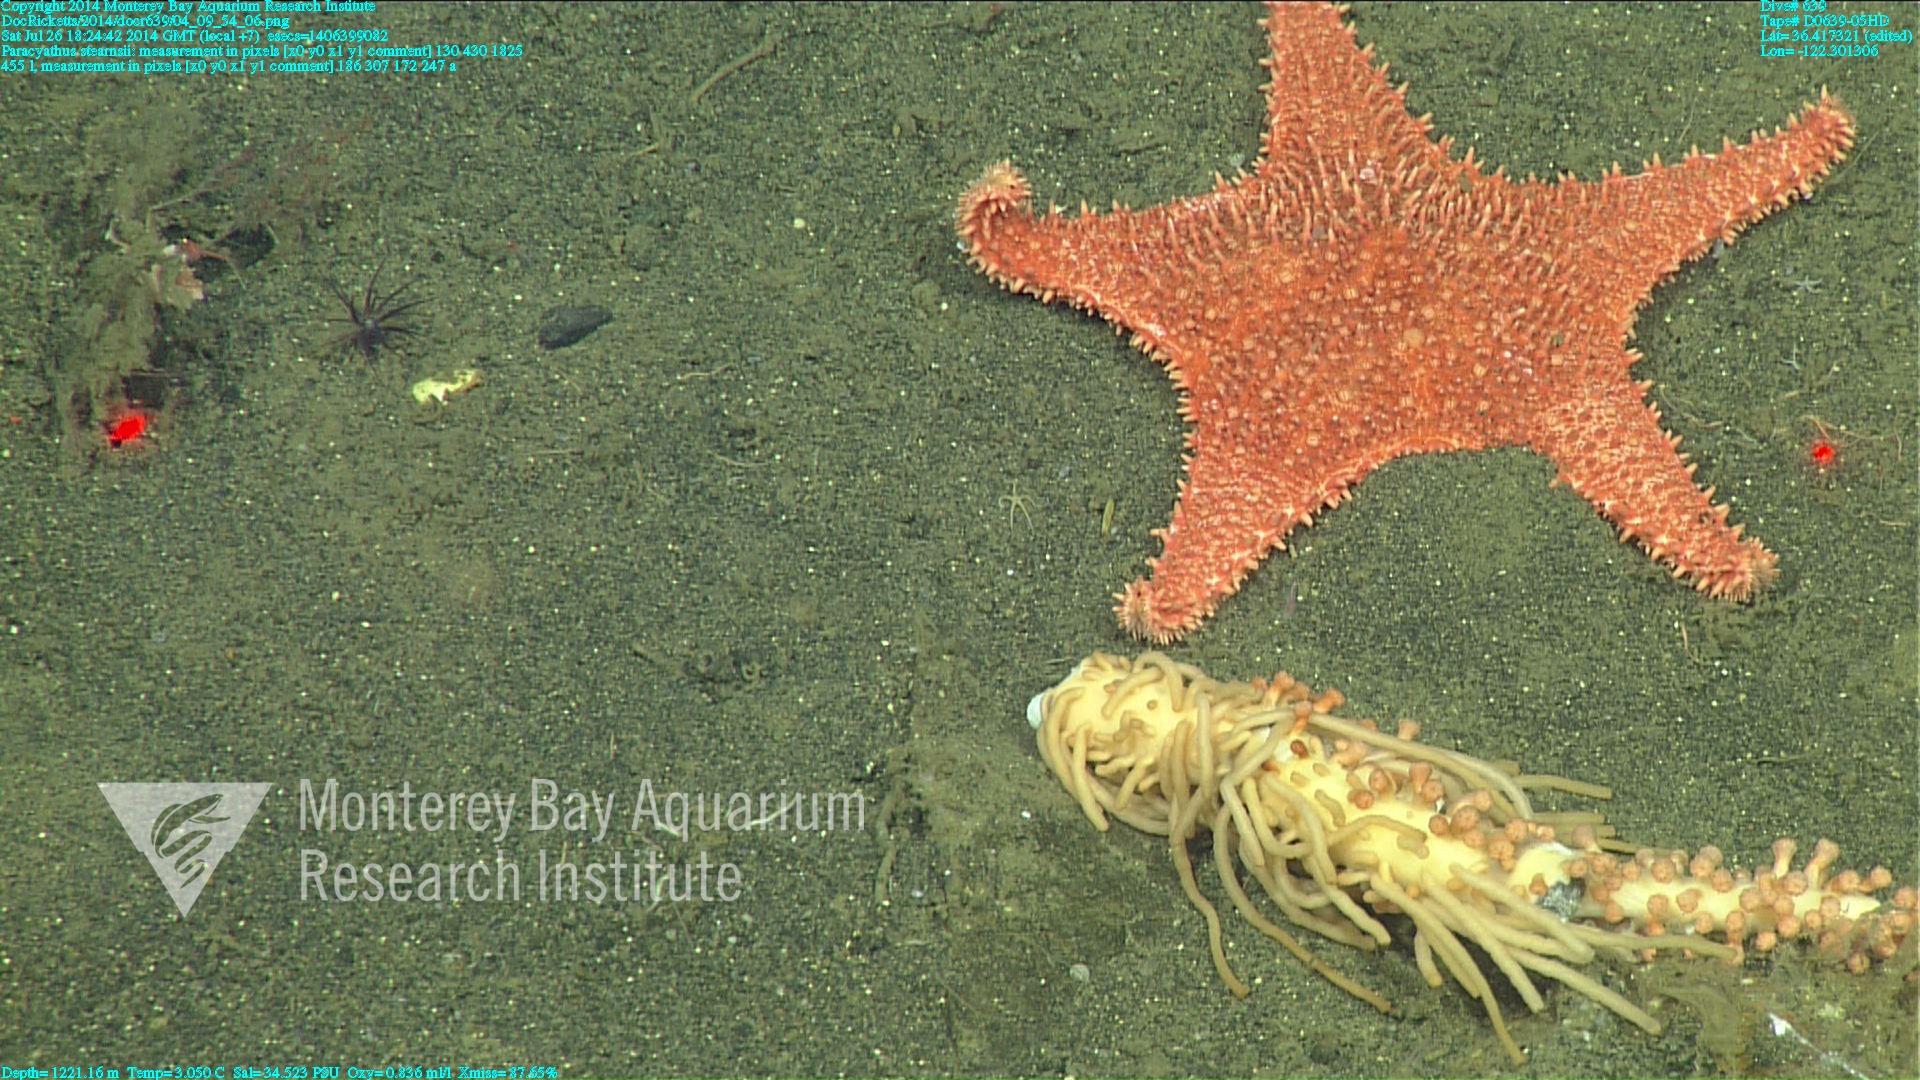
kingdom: Animalia
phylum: Cnidaria
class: Anthozoa
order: Scleractinia
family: Caryophylliidae
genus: Paracyathus
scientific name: Paracyathus stearnsii
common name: Brown stony coral
